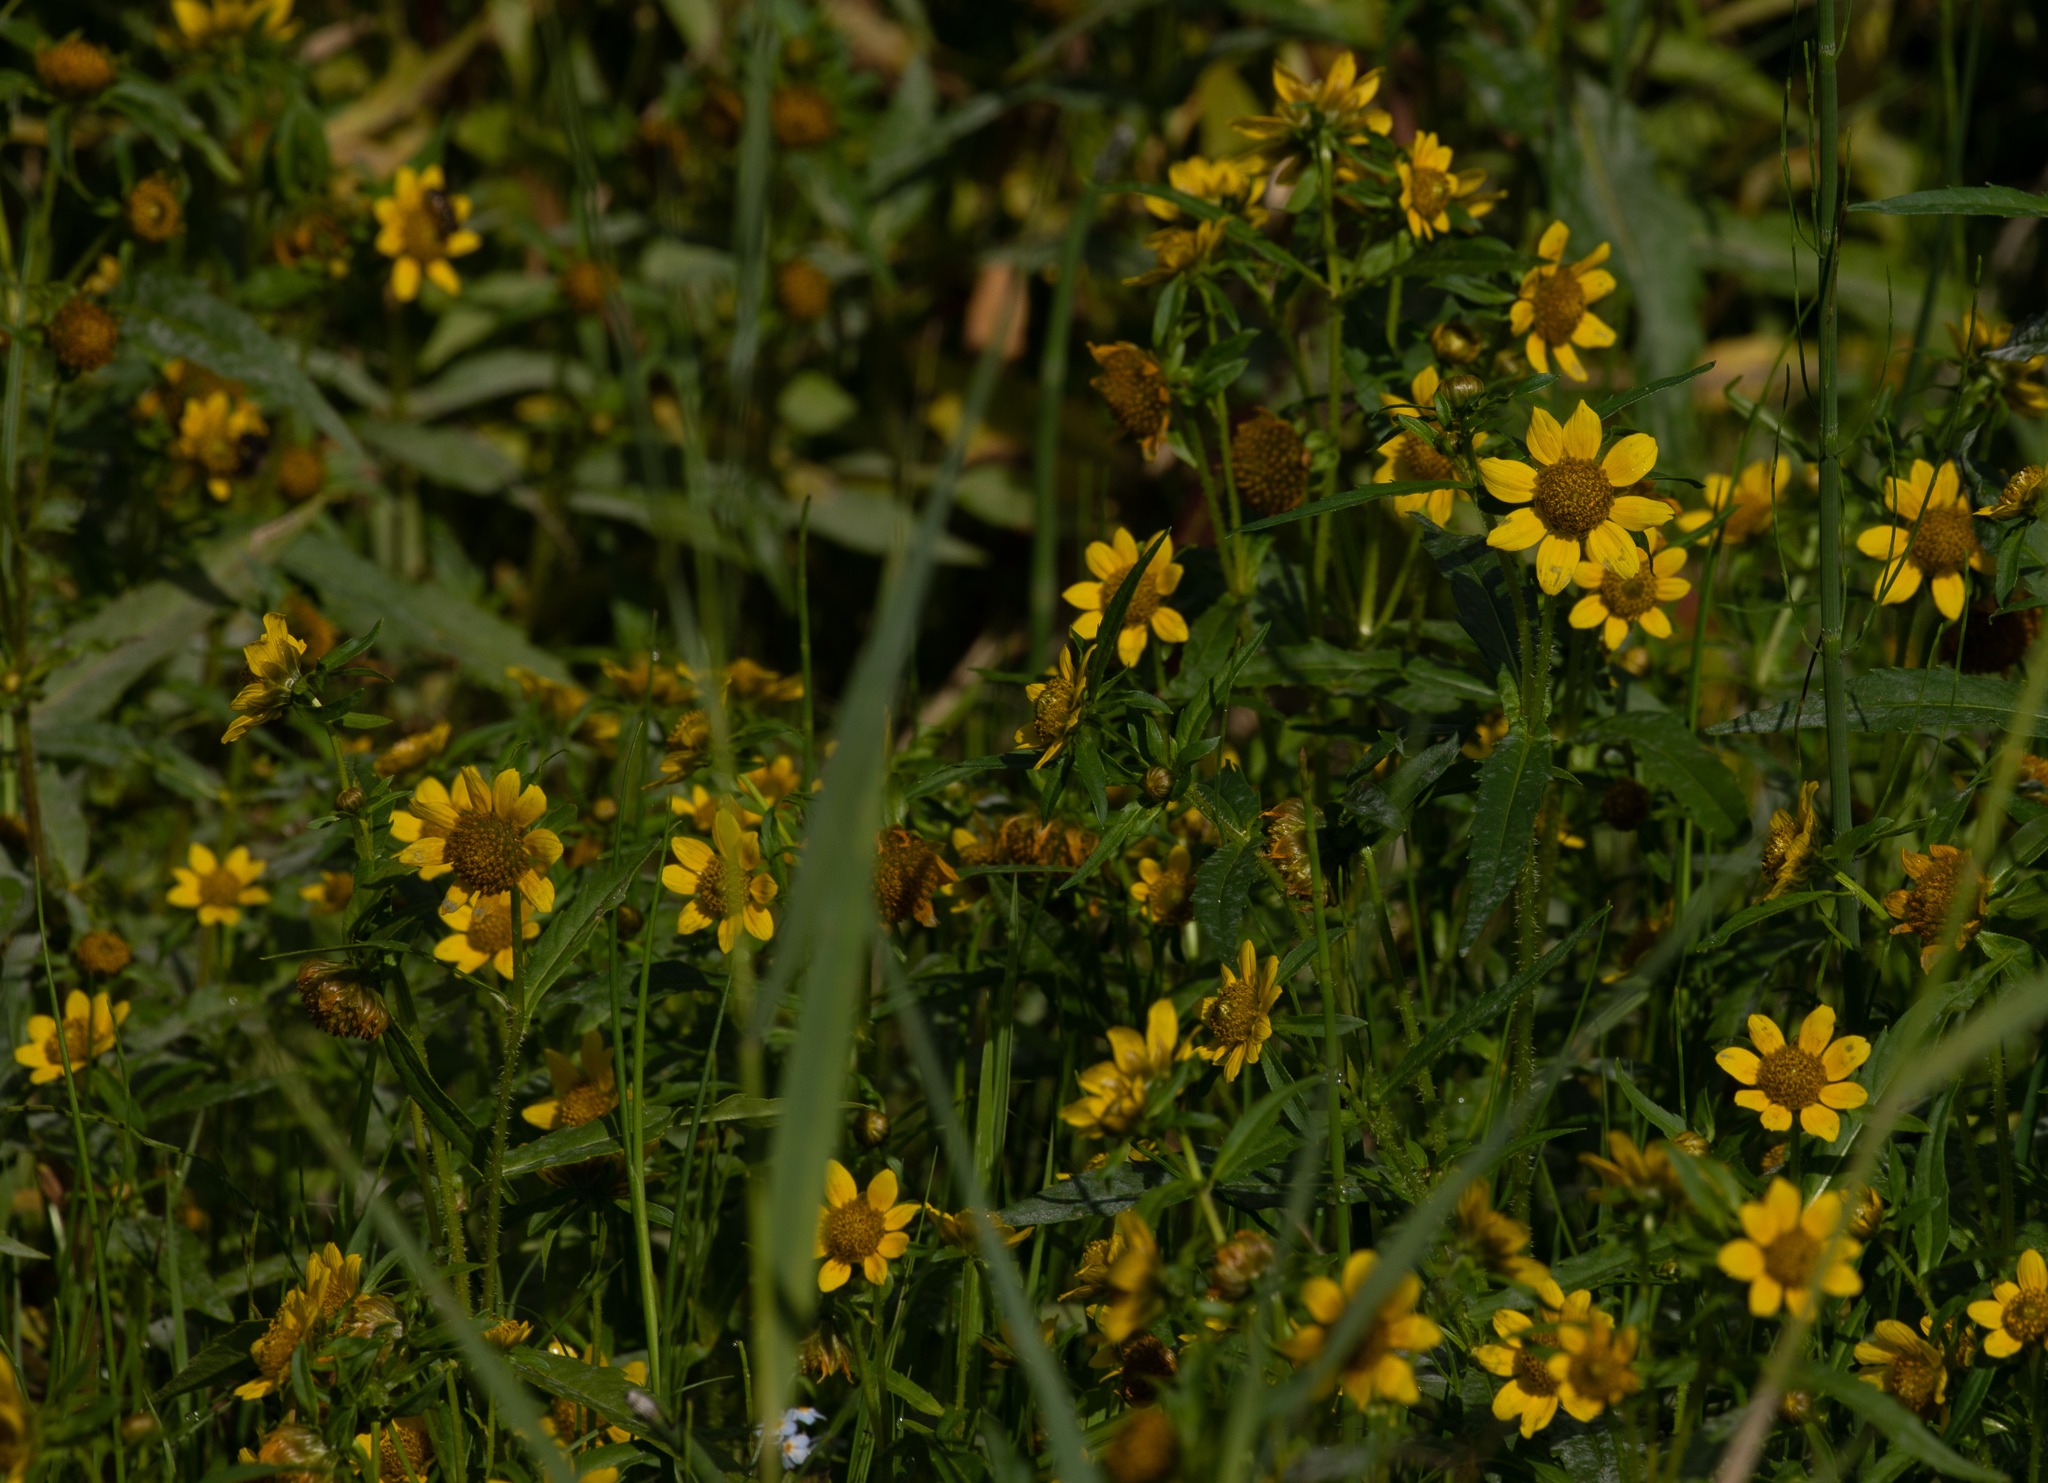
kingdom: Plantae
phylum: Tracheophyta
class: Magnoliopsida
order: Asterales
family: Asteraceae
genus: Bidens
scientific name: Bidens cernua
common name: Nikkende brøndsel
